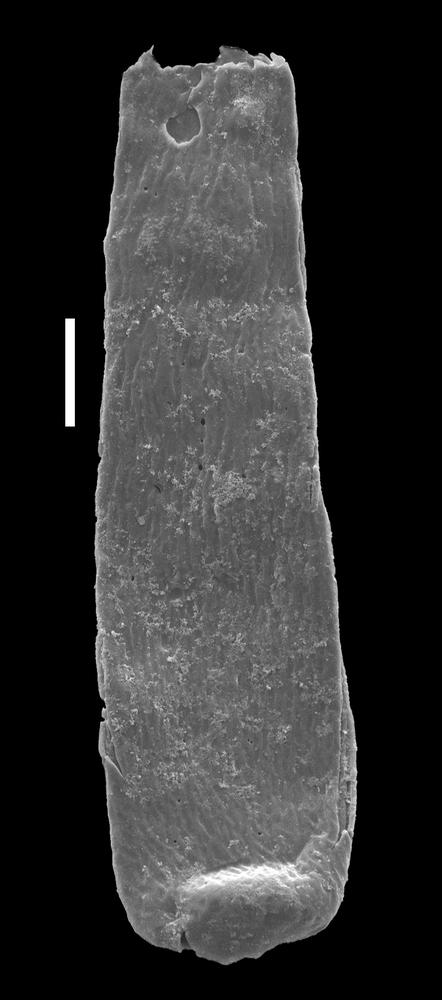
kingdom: Animalia
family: Conochitinidae
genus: Conochitina
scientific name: Conochitina rugata
